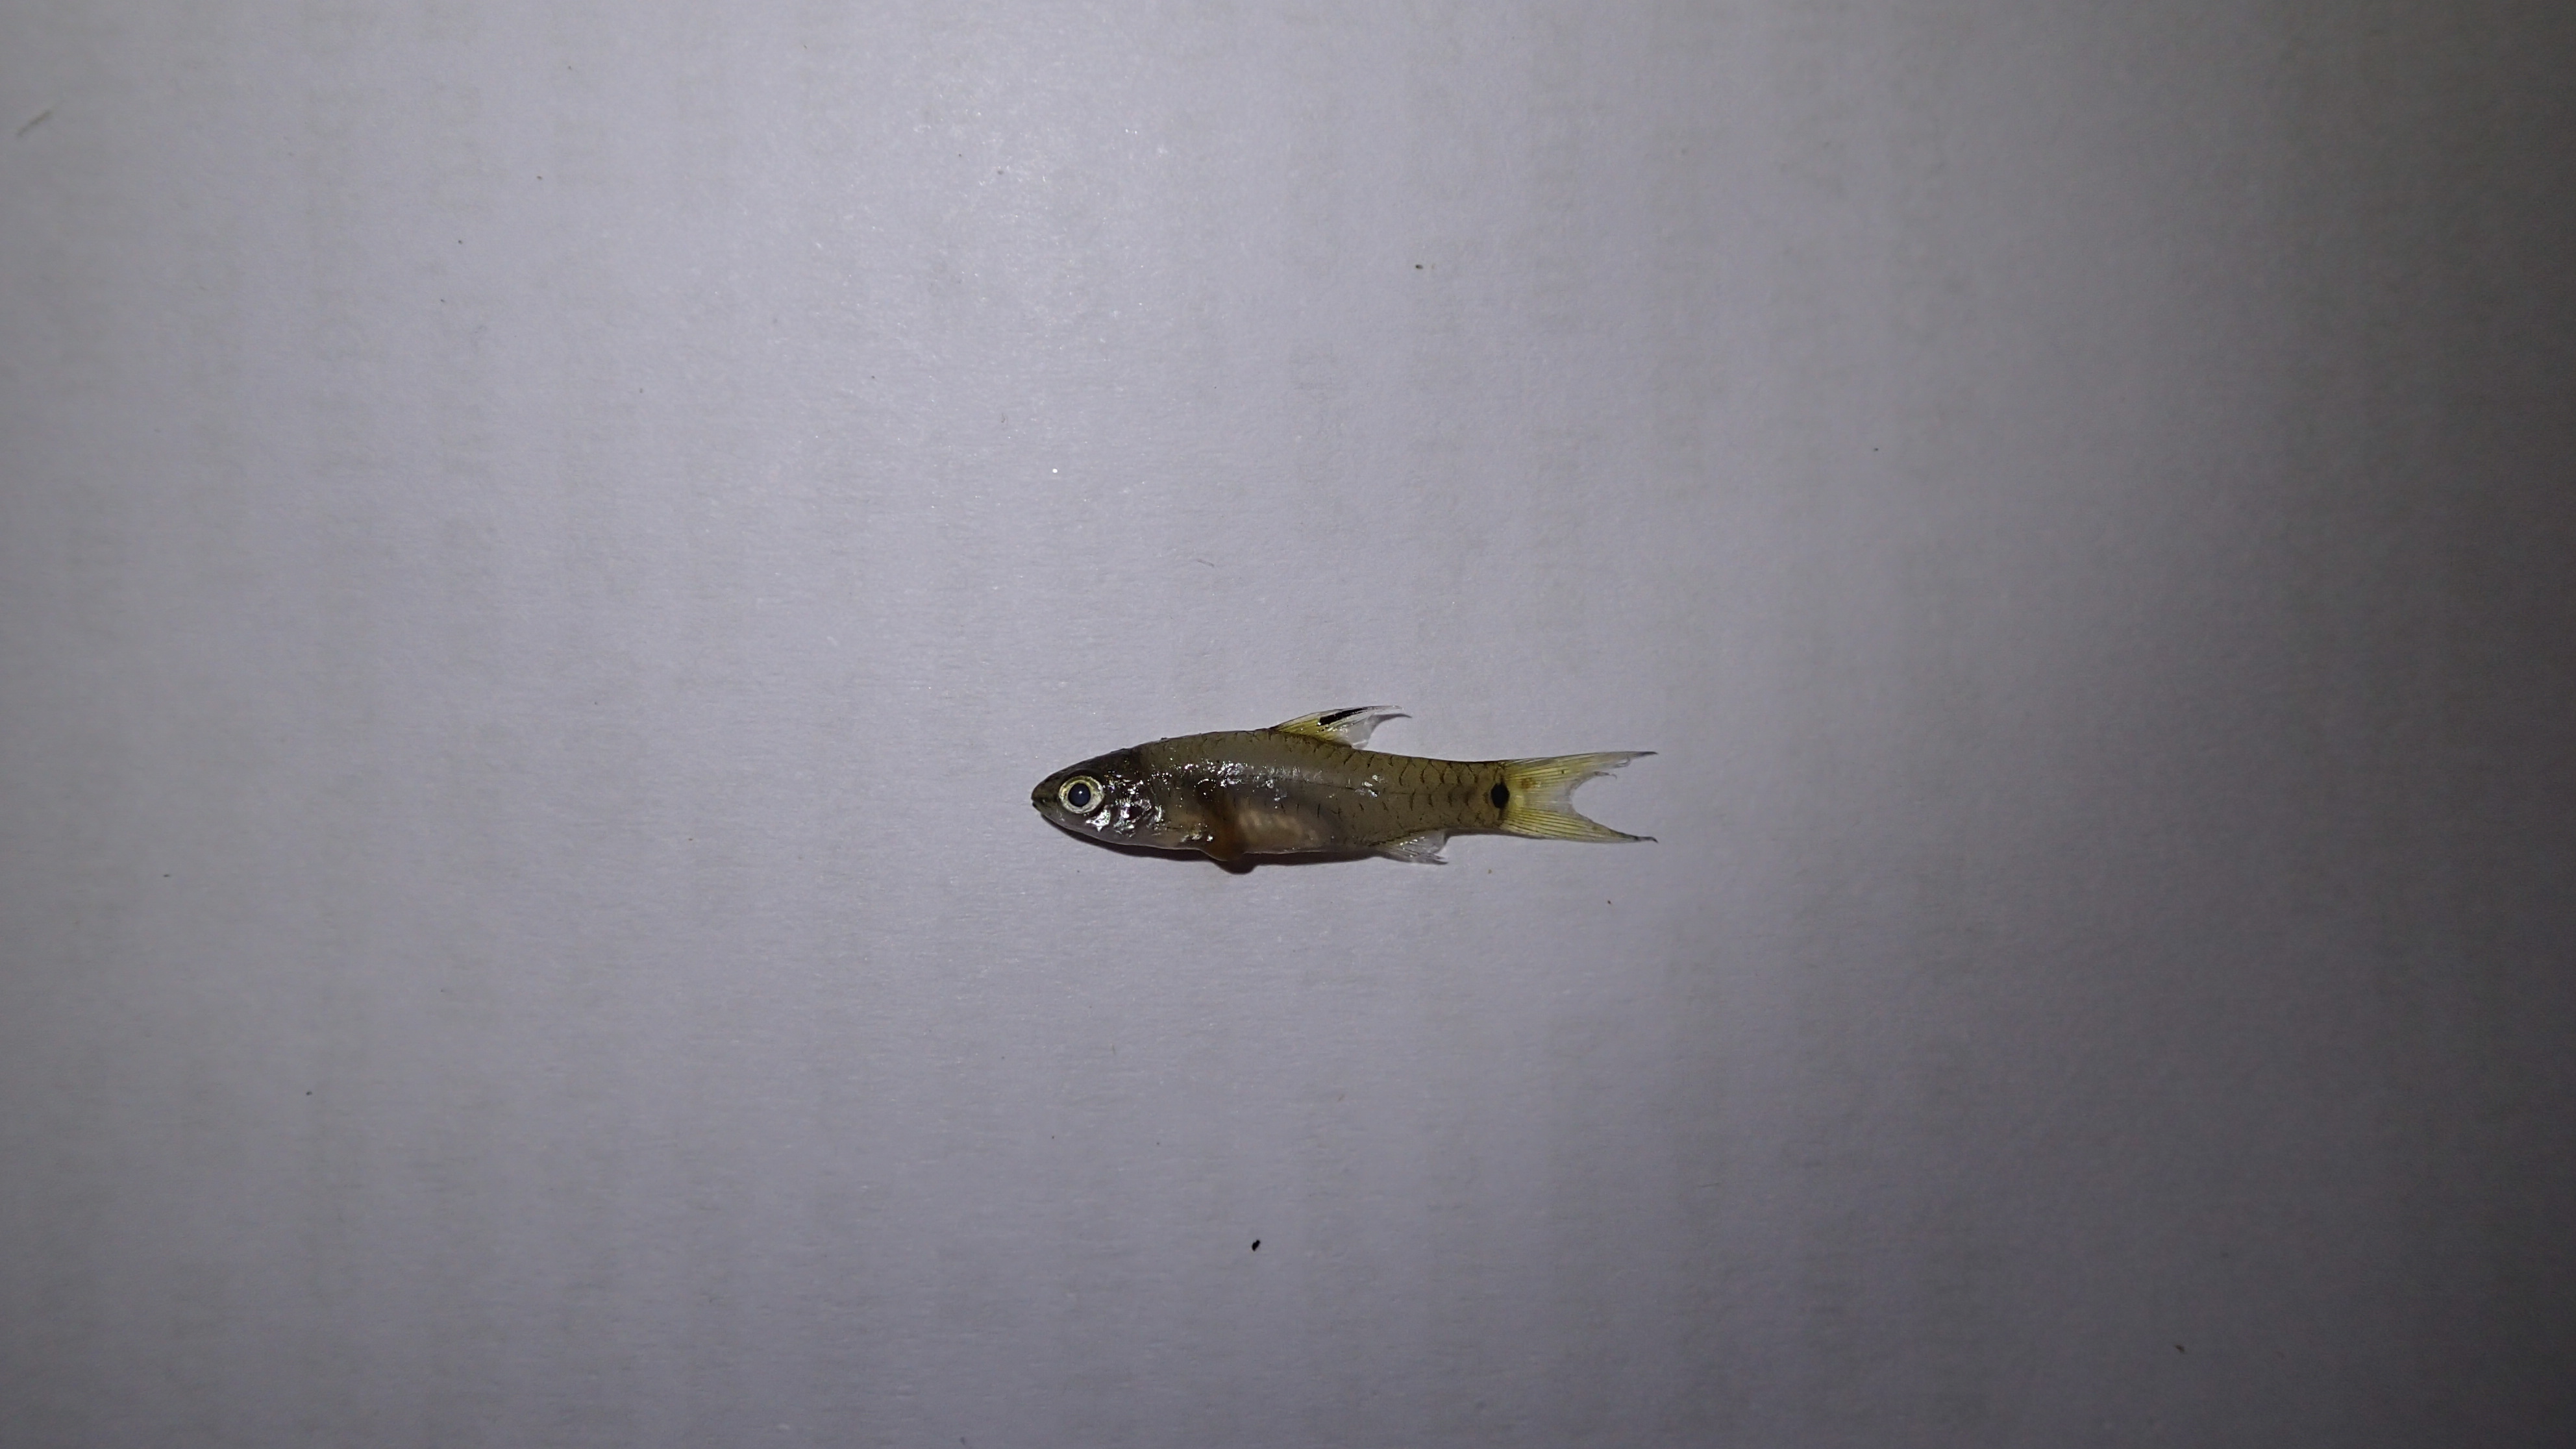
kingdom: Animalia
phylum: Chordata
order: Cypriniformes
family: Cyprinidae
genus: Enteromius
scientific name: Enteromius leonensis
